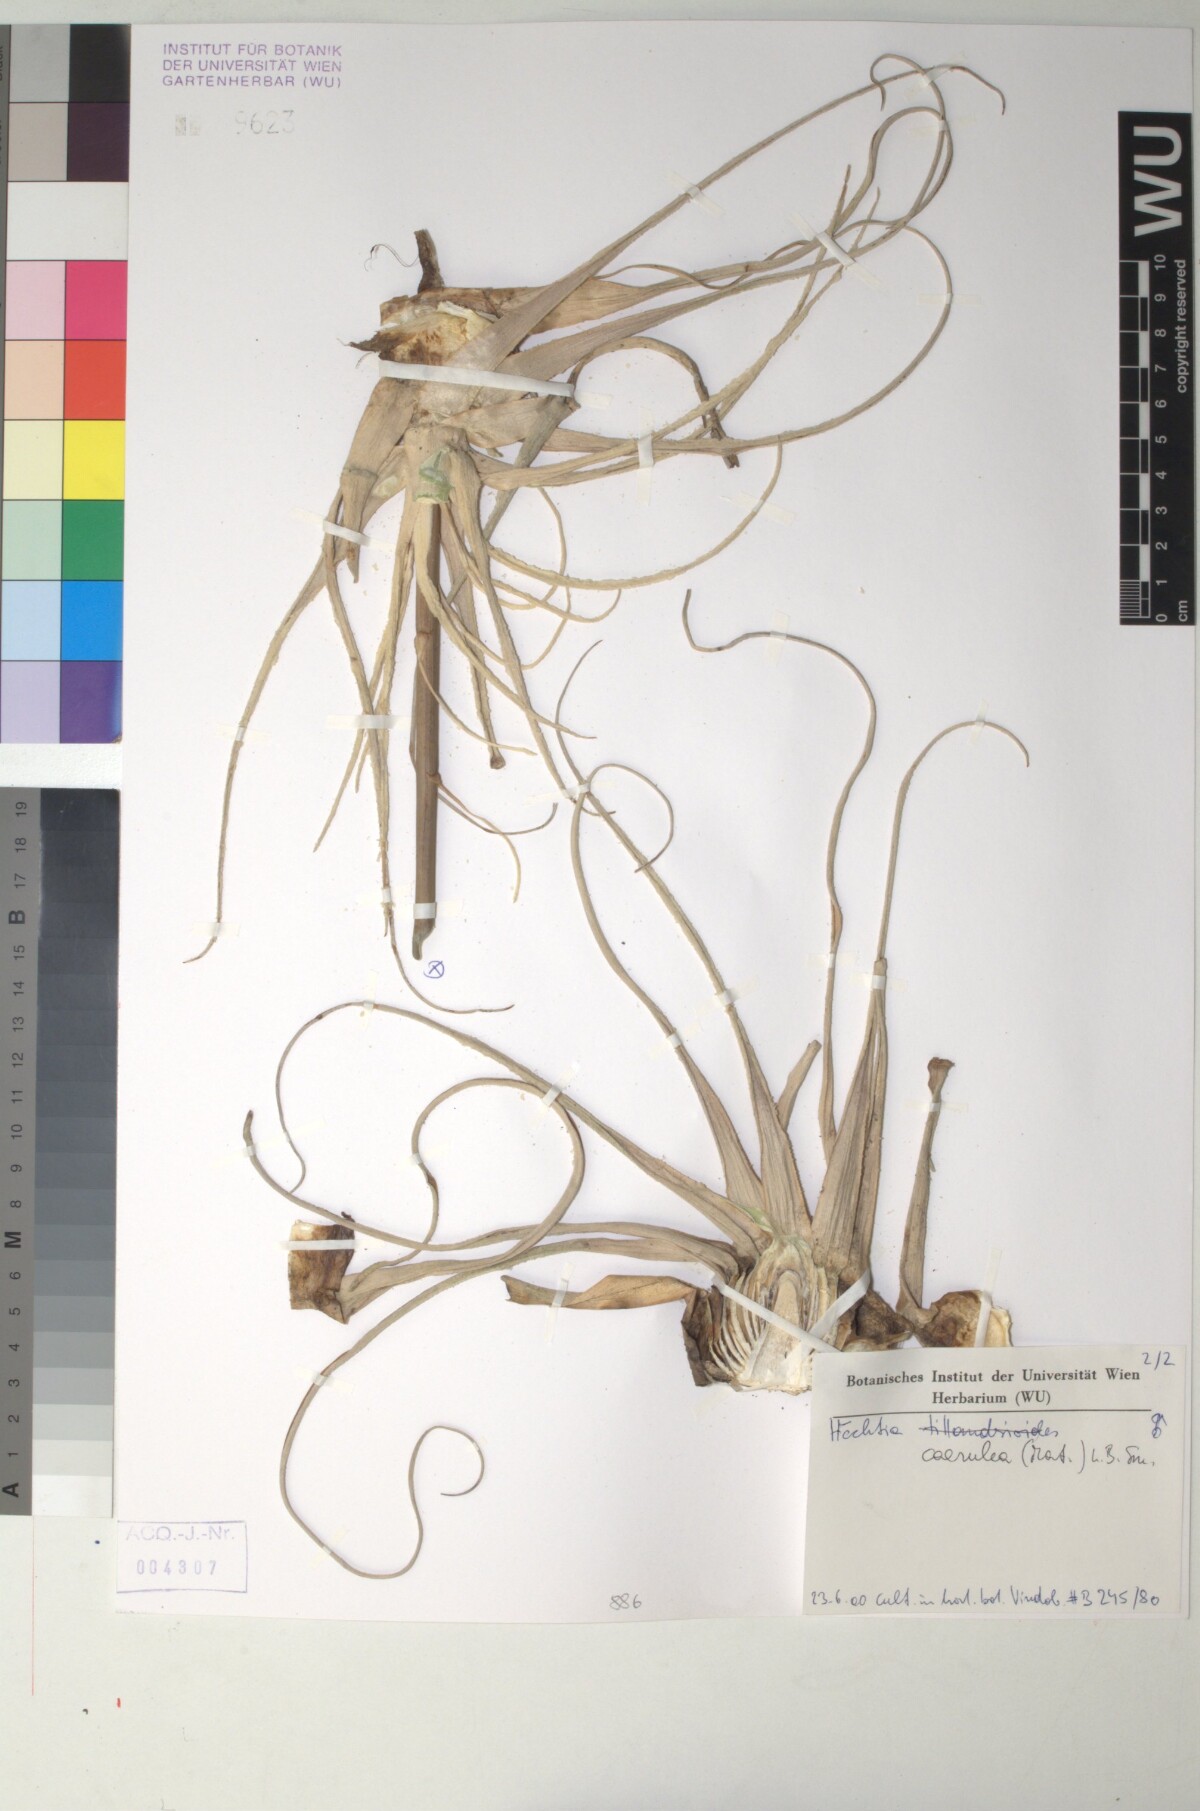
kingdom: Plantae
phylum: Tracheophyta
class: Liliopsida
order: Poales
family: Bromeliaceae
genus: Hechtia
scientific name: Hechtia
